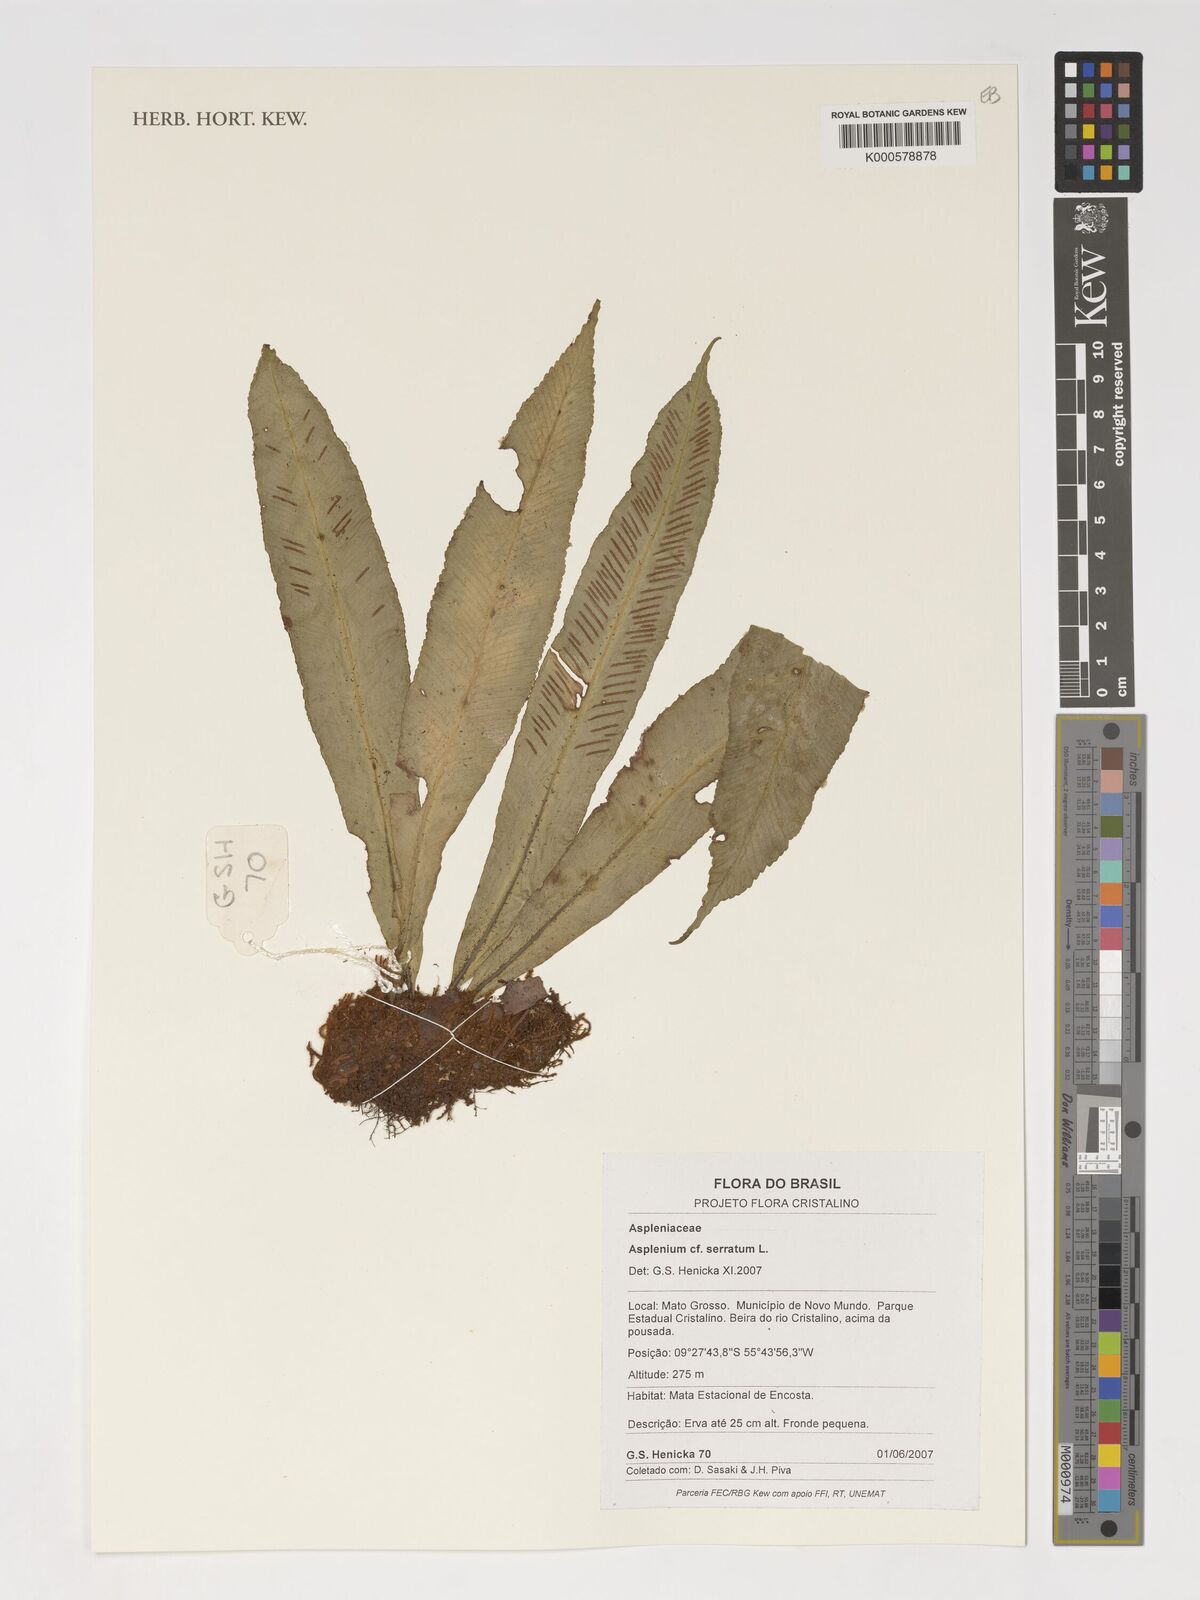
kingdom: Plantae
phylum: Tracheophyta
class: Polypodiopsida
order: Polypodiales
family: Aspleniaceae
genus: Asplenium
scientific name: Asplenium serratum
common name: Wild birdnest fern
